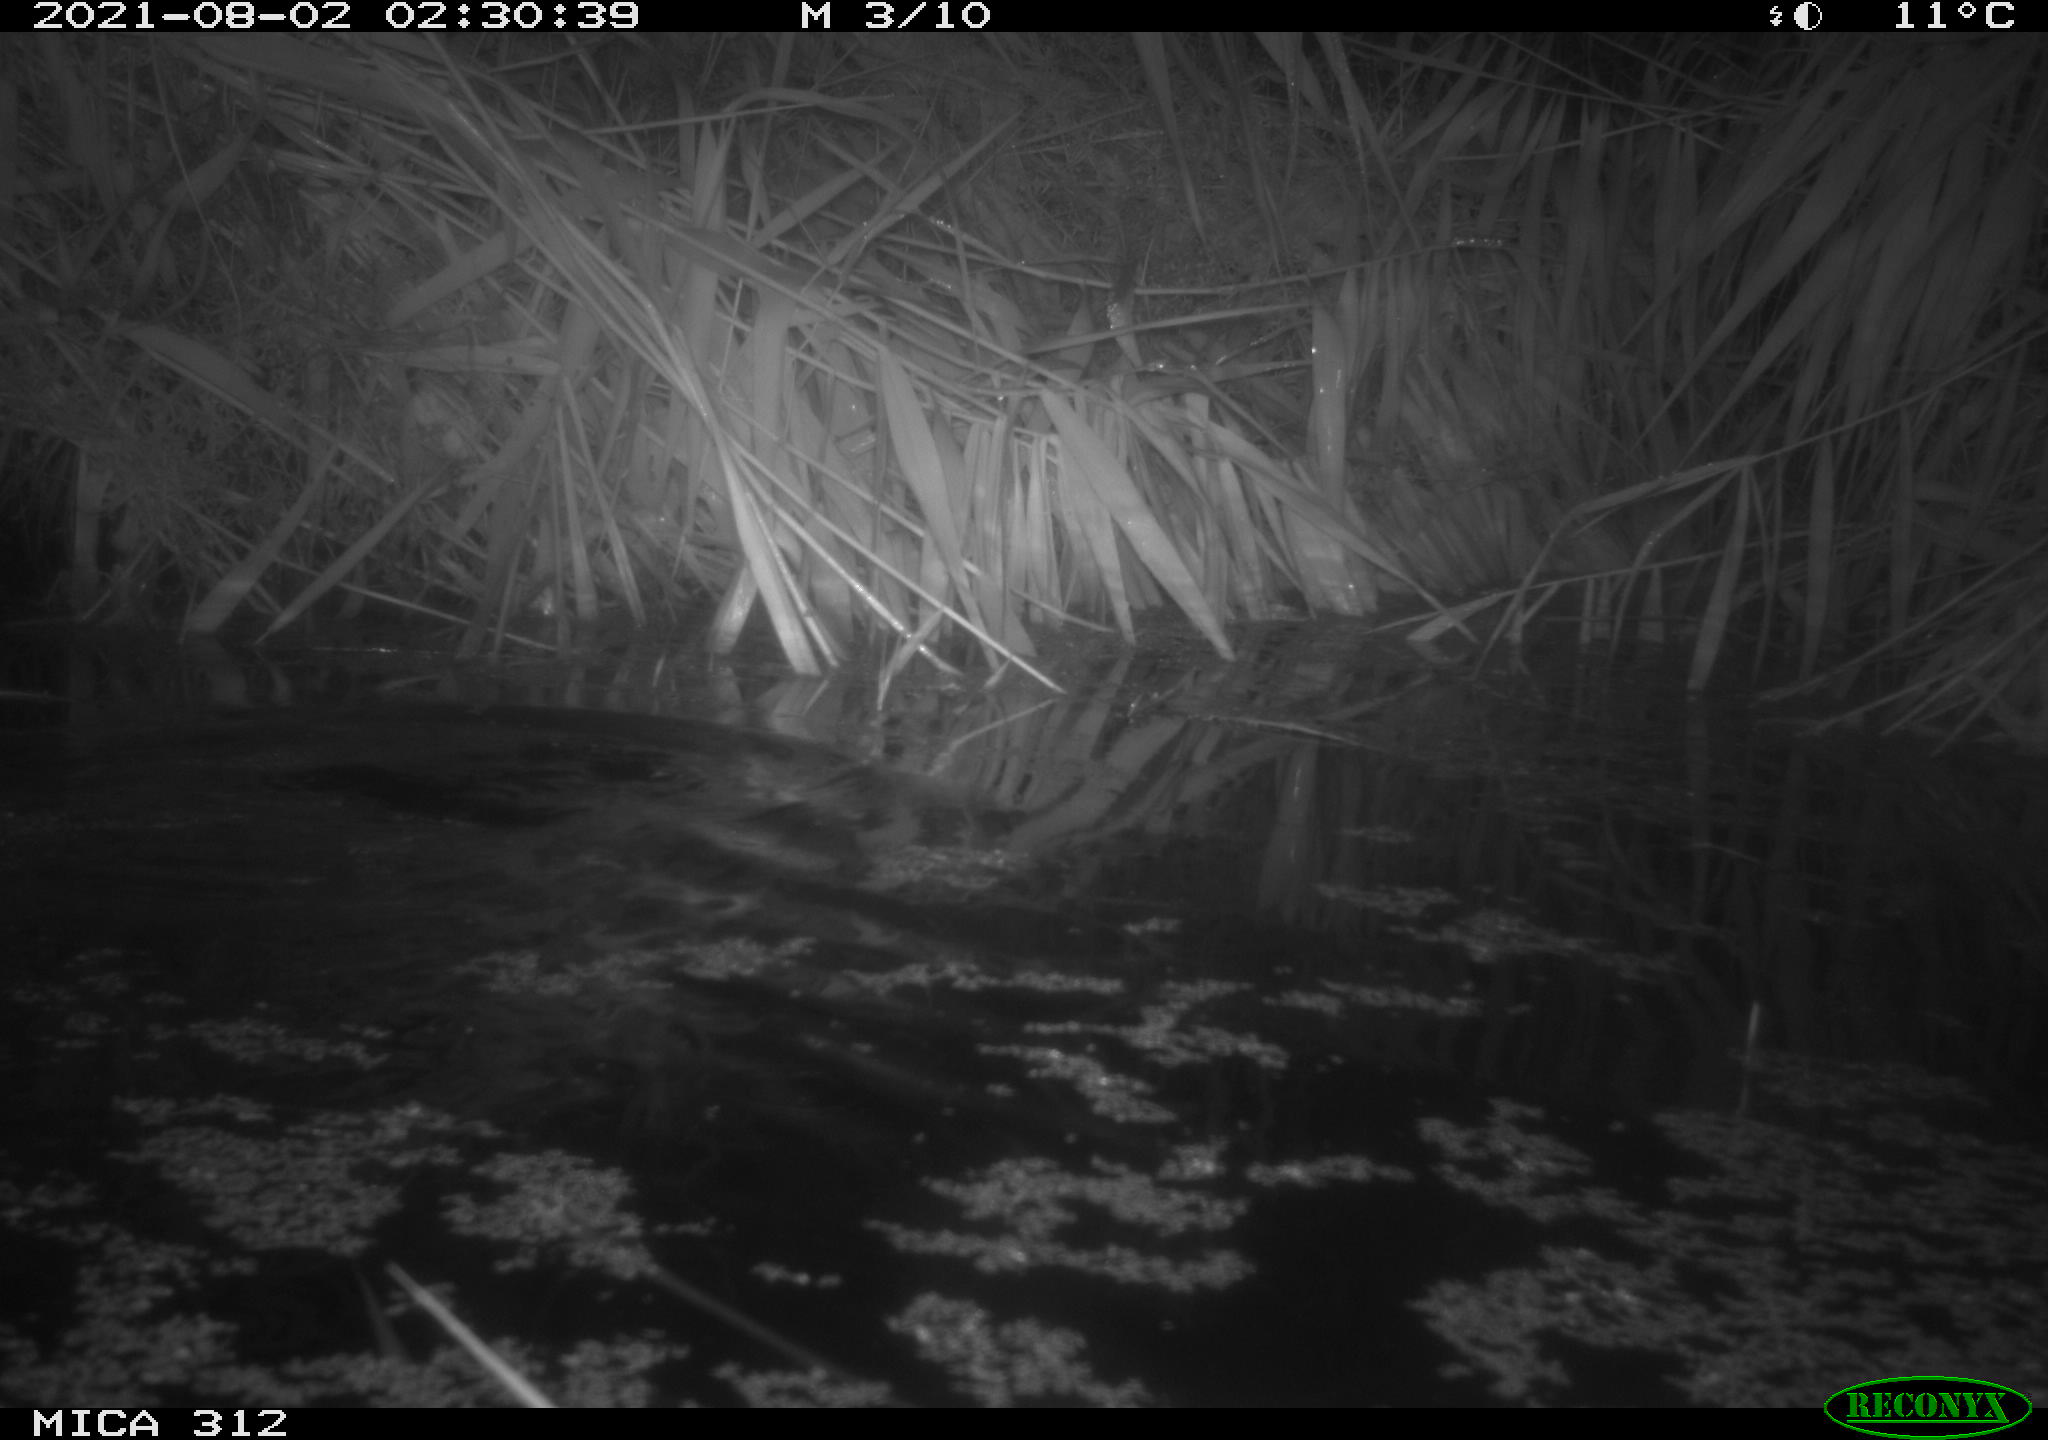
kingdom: Animalia
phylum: Chordata
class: Mammalia
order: Rodentia
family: Cricetidae
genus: Ondatra
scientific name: Ondatra zibethicus
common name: Muskrat
